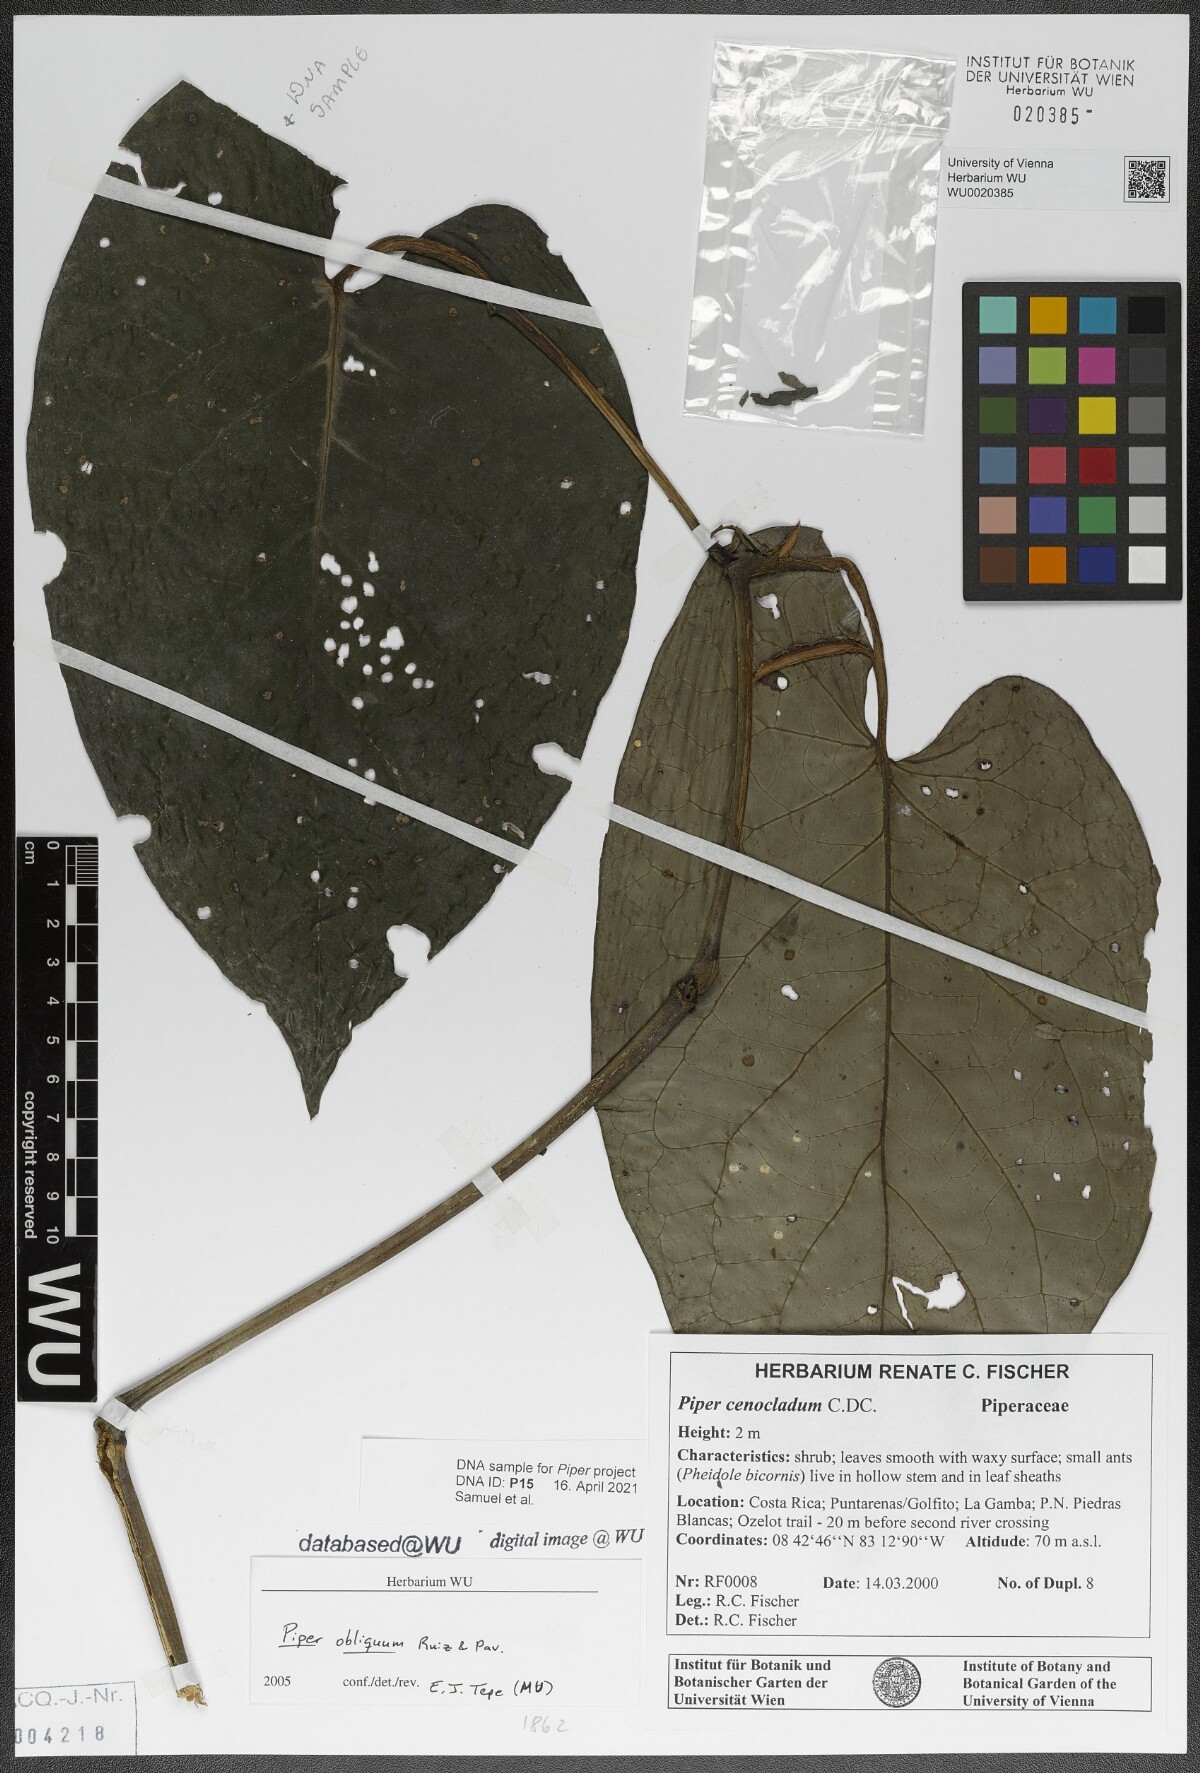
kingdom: Plantae
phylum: Tracheophyta
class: Magnoliopsida
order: Piperales
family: Piperaceae
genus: Piper
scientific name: Piper obliquum
